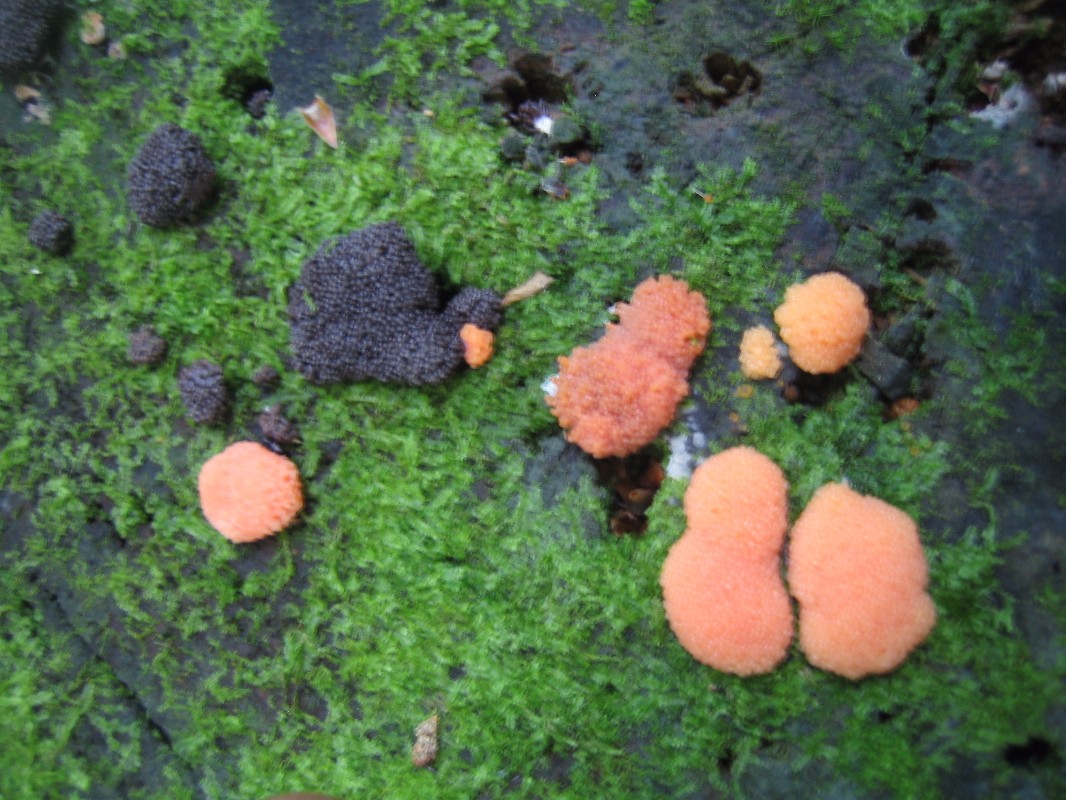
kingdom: Protozoa
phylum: Mycetozoa
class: Myxomycetes
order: Cribrariales
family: Tubiferaceae
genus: Tubifera
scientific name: Tubifera ferruginosa
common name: kanel-støvrør
